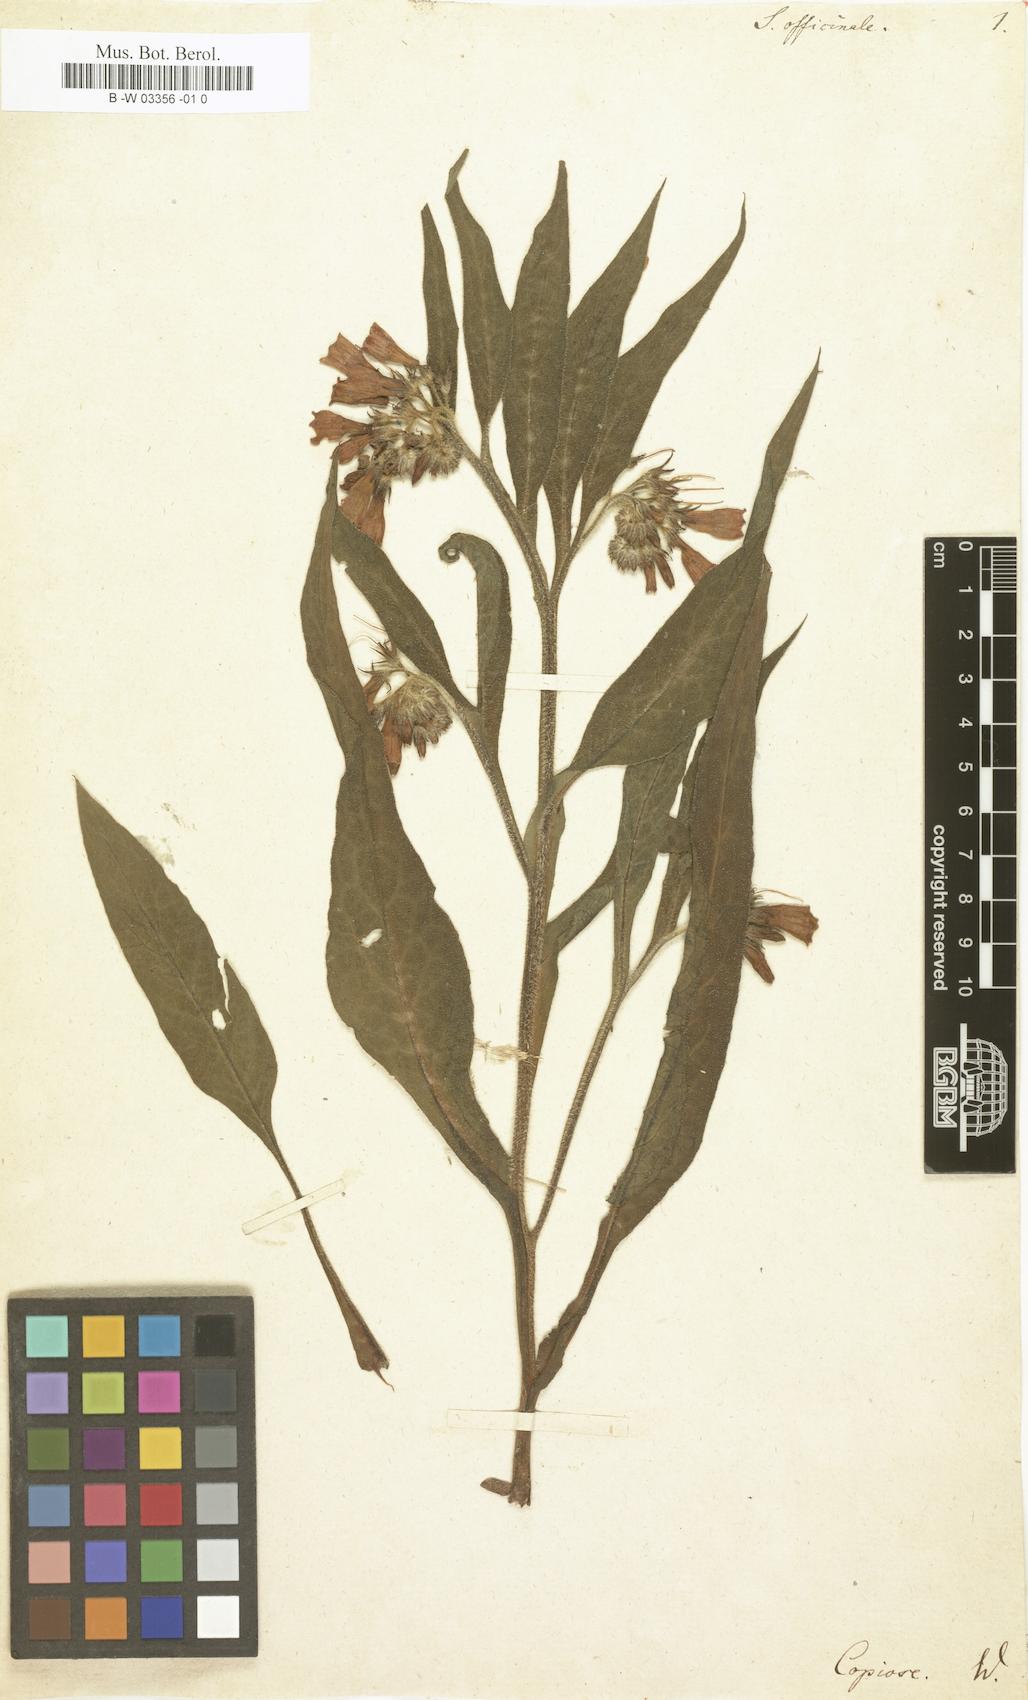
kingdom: Plantae
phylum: Tracheophyta
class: Magnoliopsida
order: Boraginales
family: Boraginaceae
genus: Symphytum
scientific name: Symphytum officinale
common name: Common comfrey
